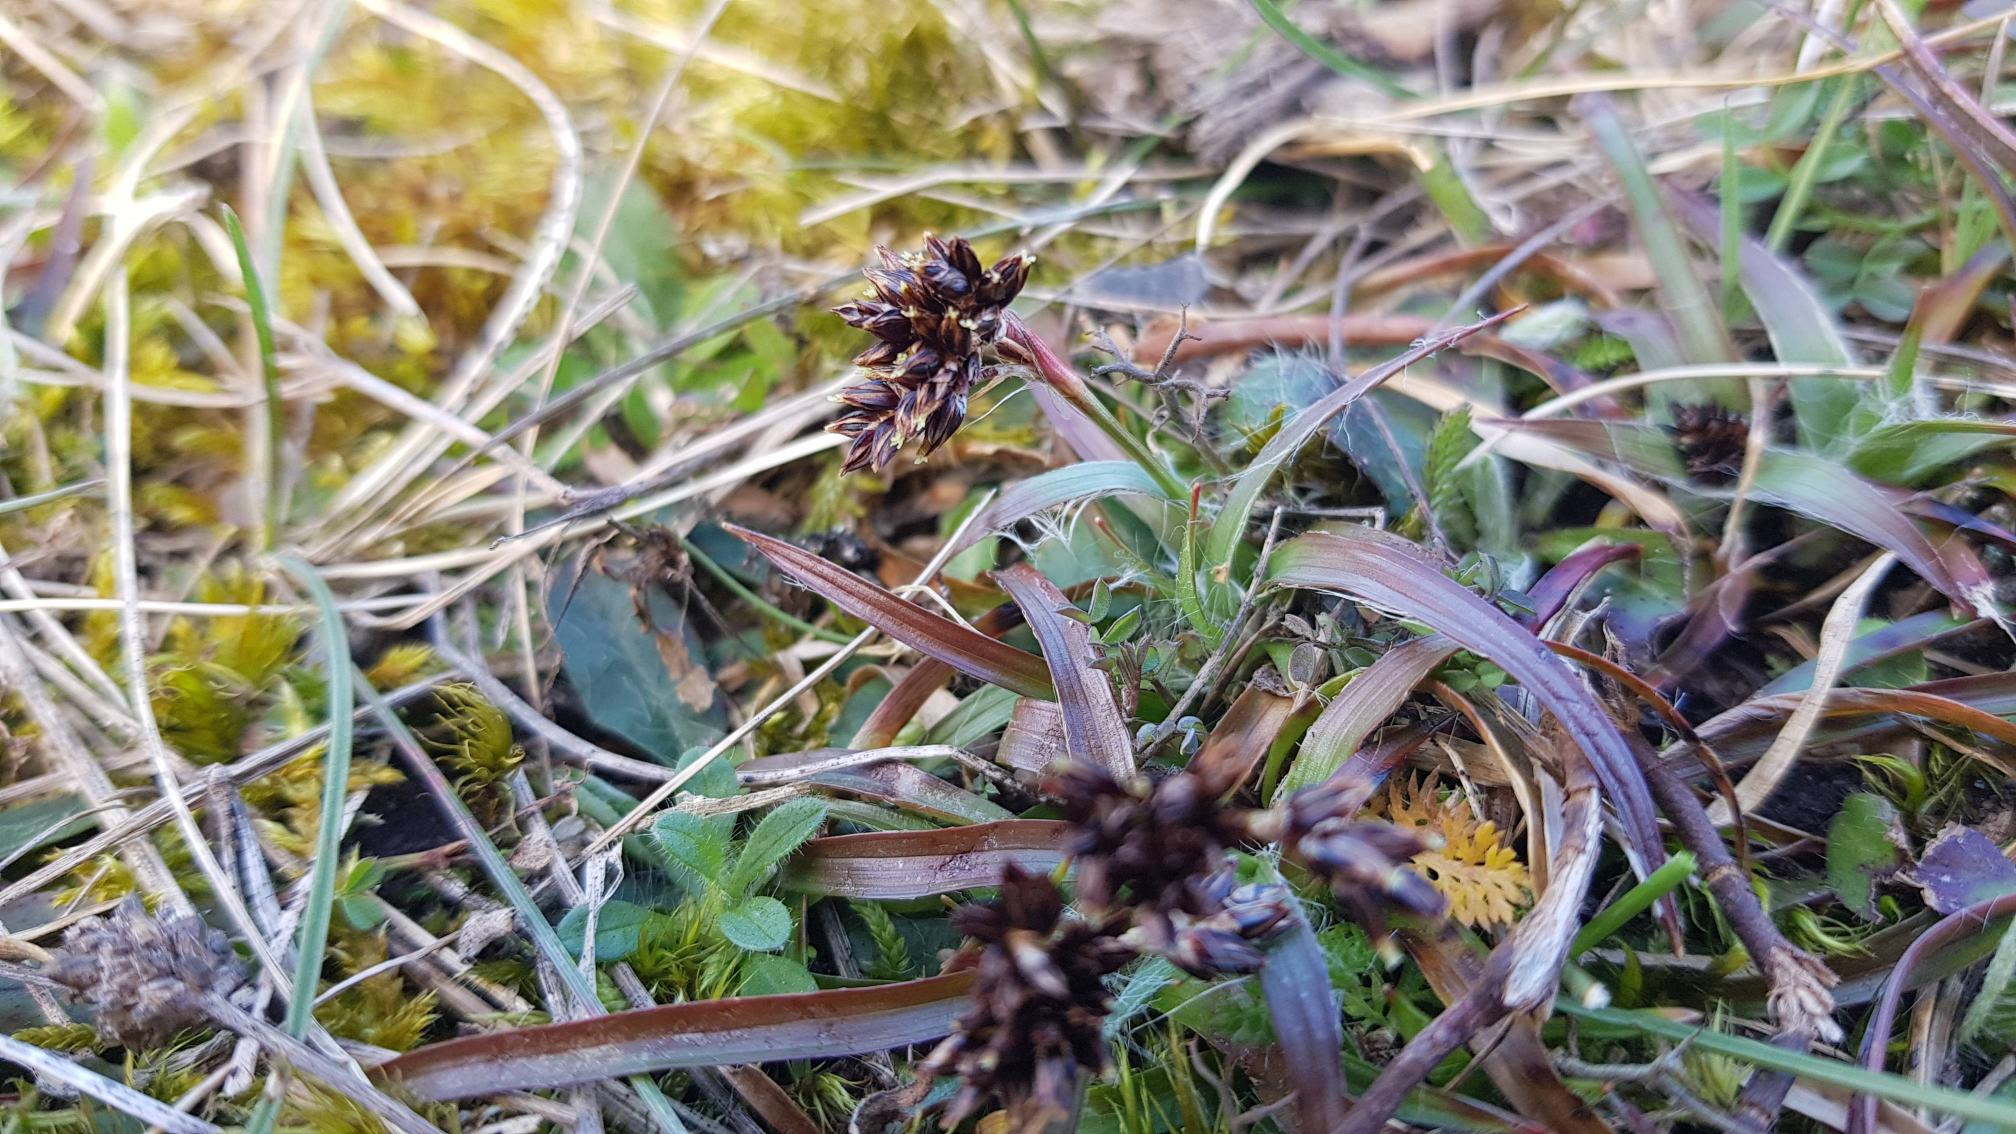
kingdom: Plantae
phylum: Tracheophyta
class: Liliopsida
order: Poales
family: Juncaceae
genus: Luzula
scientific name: Luzula campestris
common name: Mark-frytle
